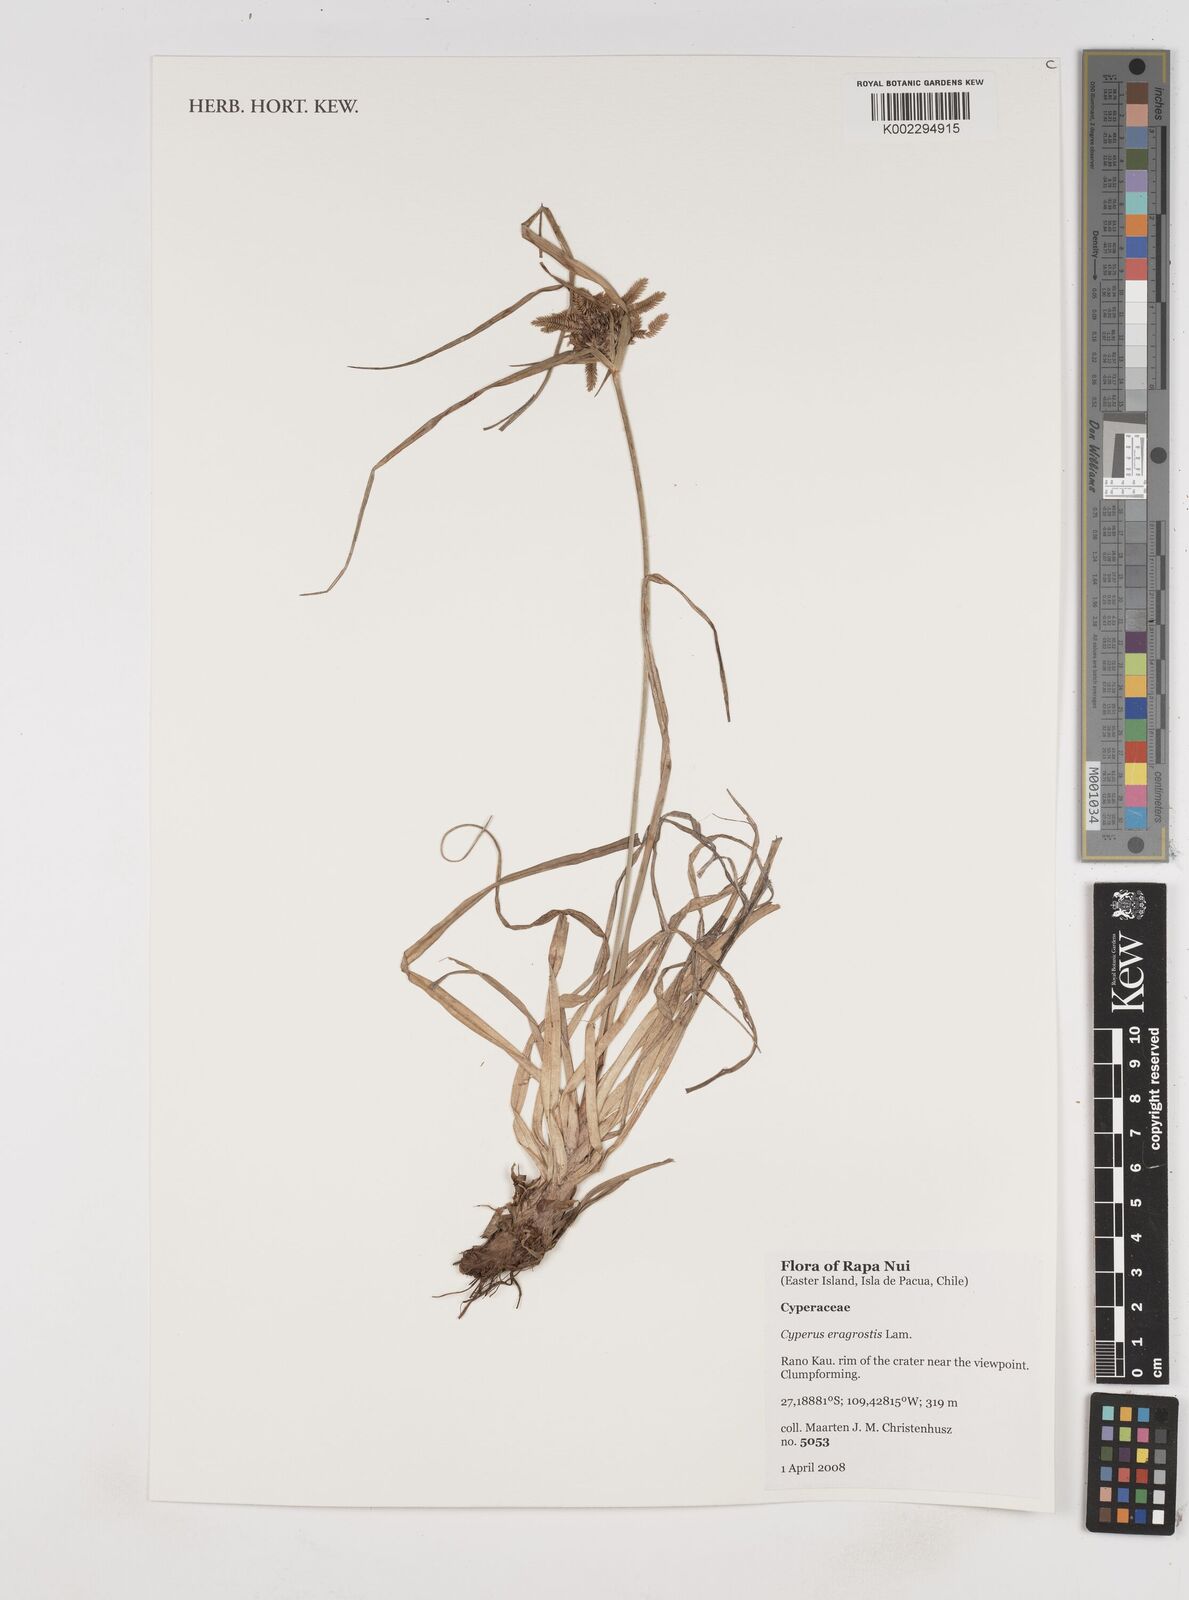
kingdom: Plantae
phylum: Tracheophyta
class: Liliopsida
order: Poales
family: Cyperaceae
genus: Cyperus
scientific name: Cyperus eragrostis
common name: Tall flatsedge
